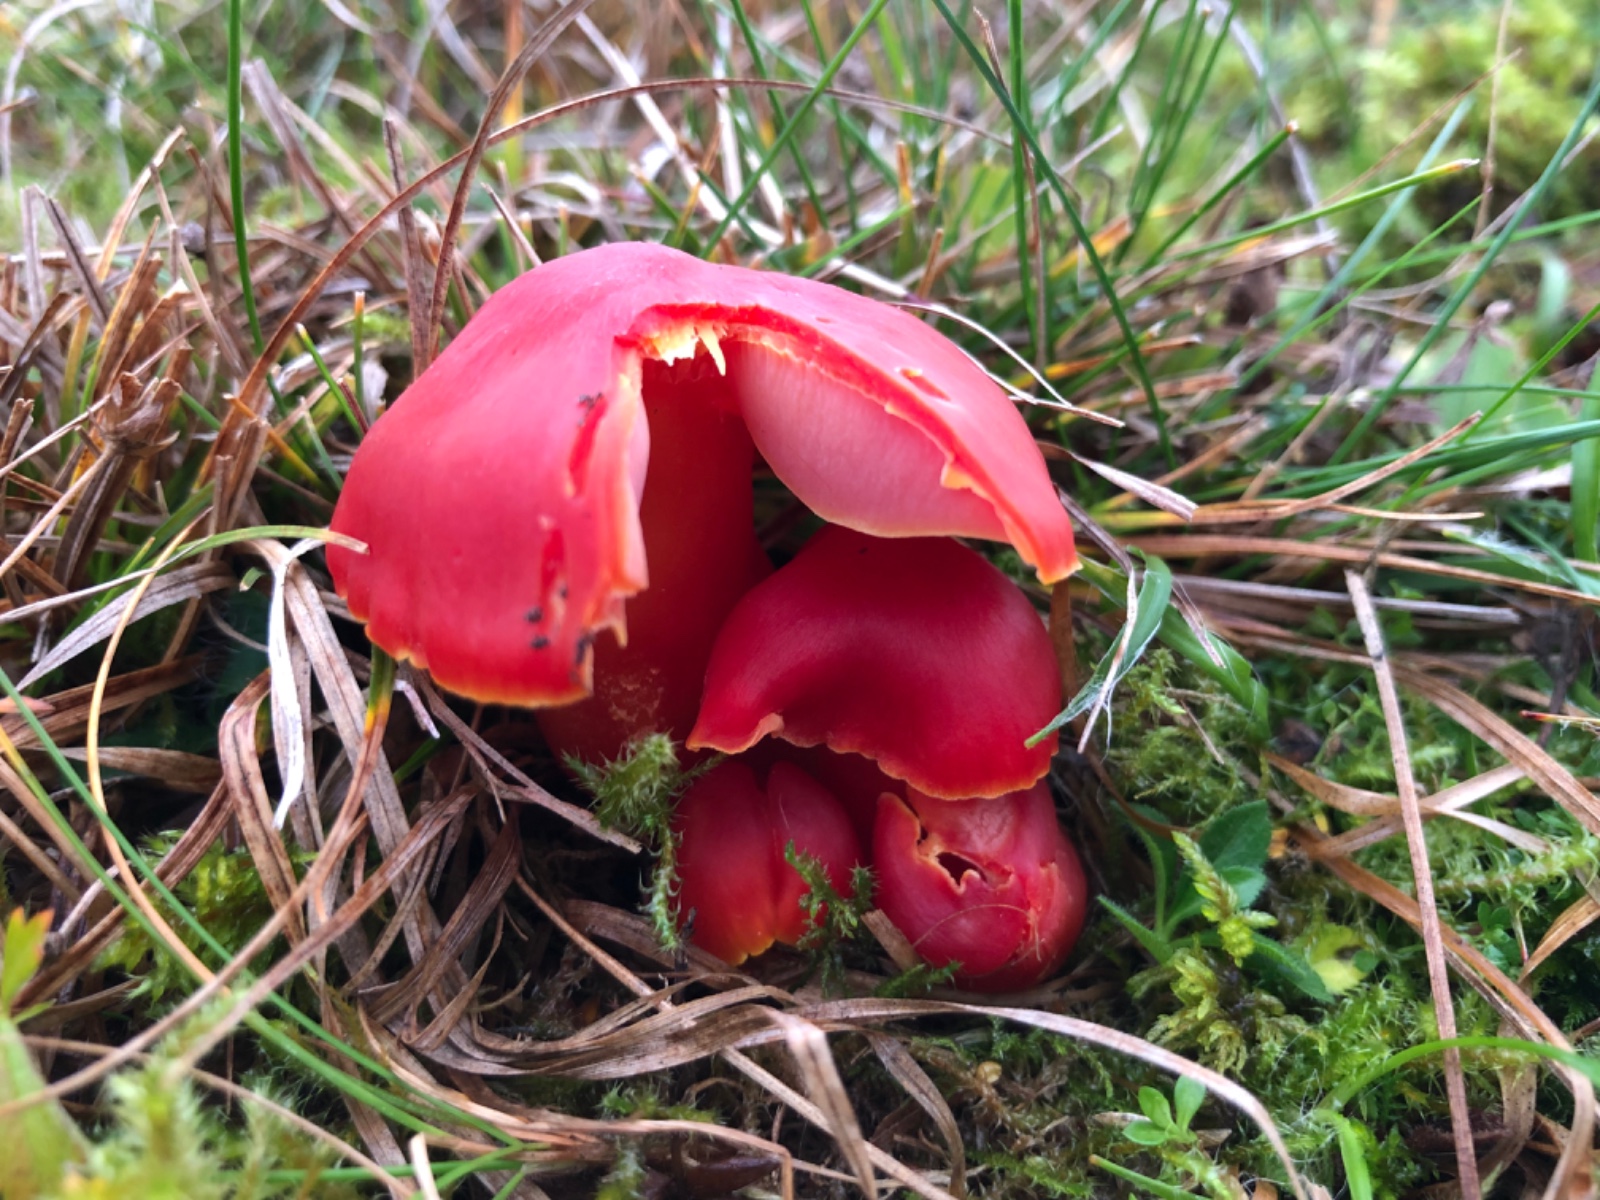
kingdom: Fungi
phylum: Basidiomycota
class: Agaricomycetes
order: Agaricales
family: Hygrophoraceae
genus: Hygrocybe
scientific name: Hygrocybe splendidissima
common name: knaldrød vokshat
